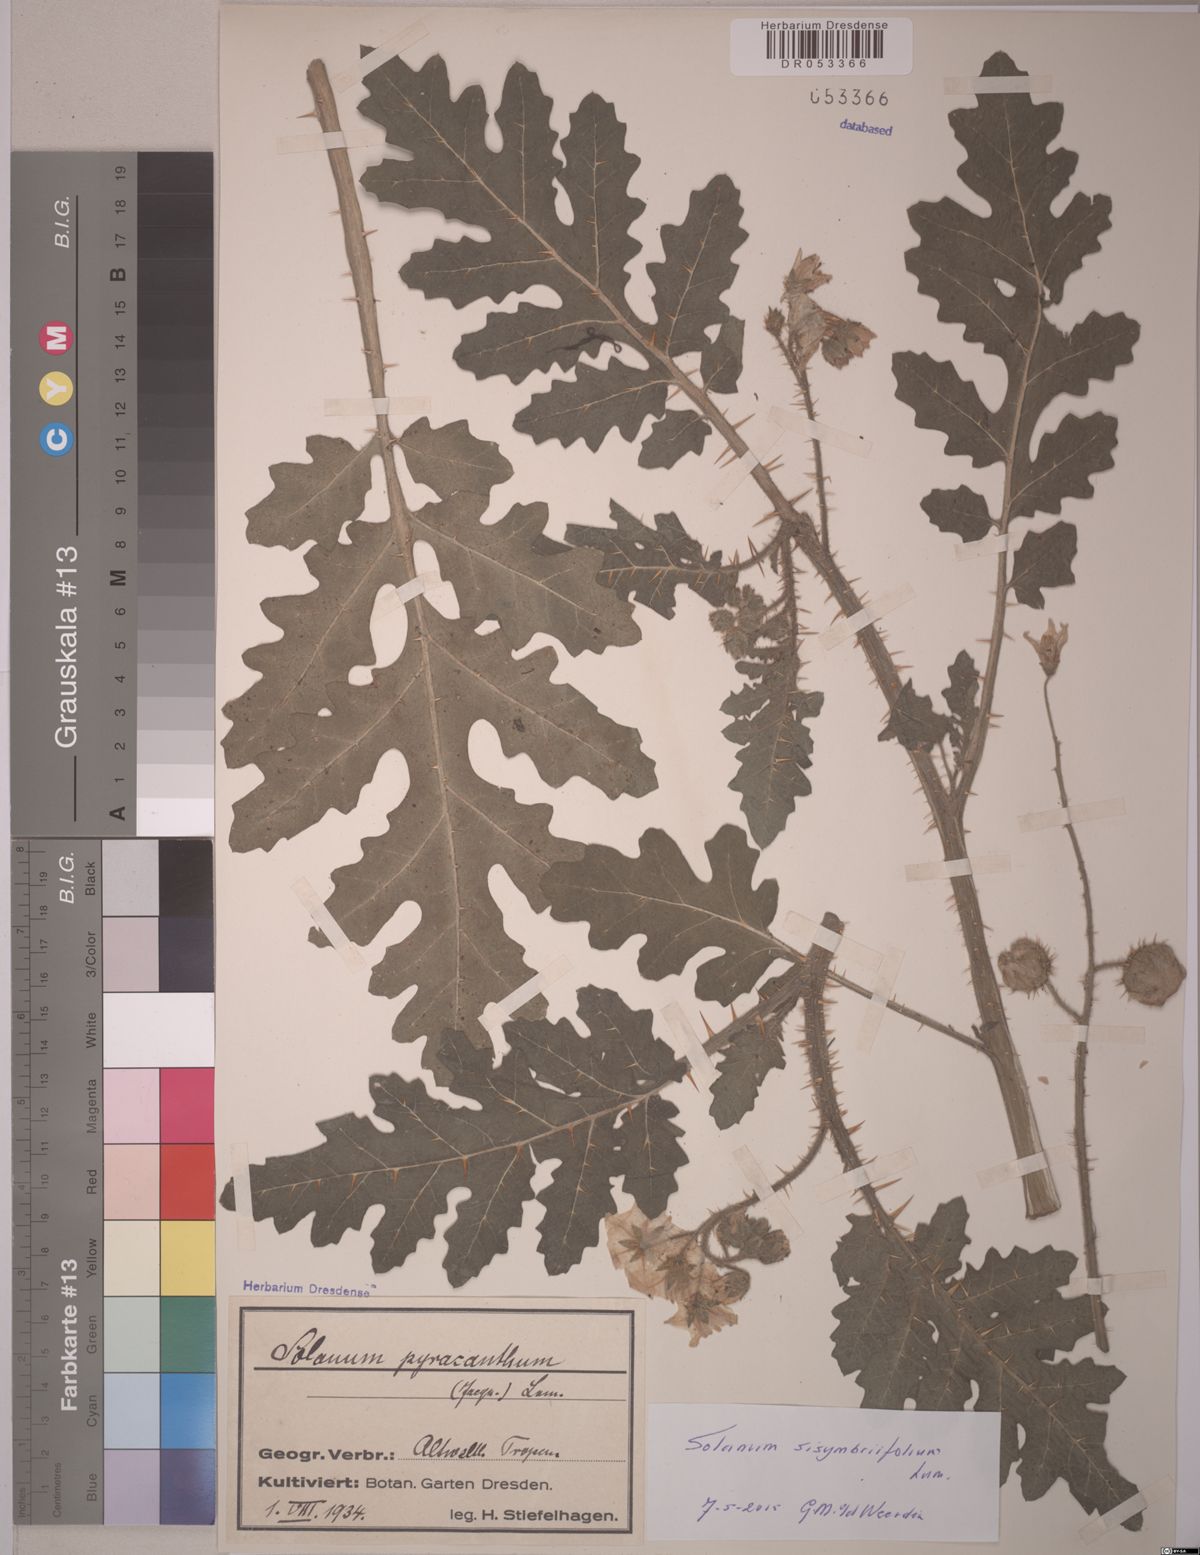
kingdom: Plantae
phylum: Tracheophyta
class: Magnoliopsida
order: Solanales
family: Solanaceae
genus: Solanum
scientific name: Solanum sisymbriifolium
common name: Red buffalo-bur
